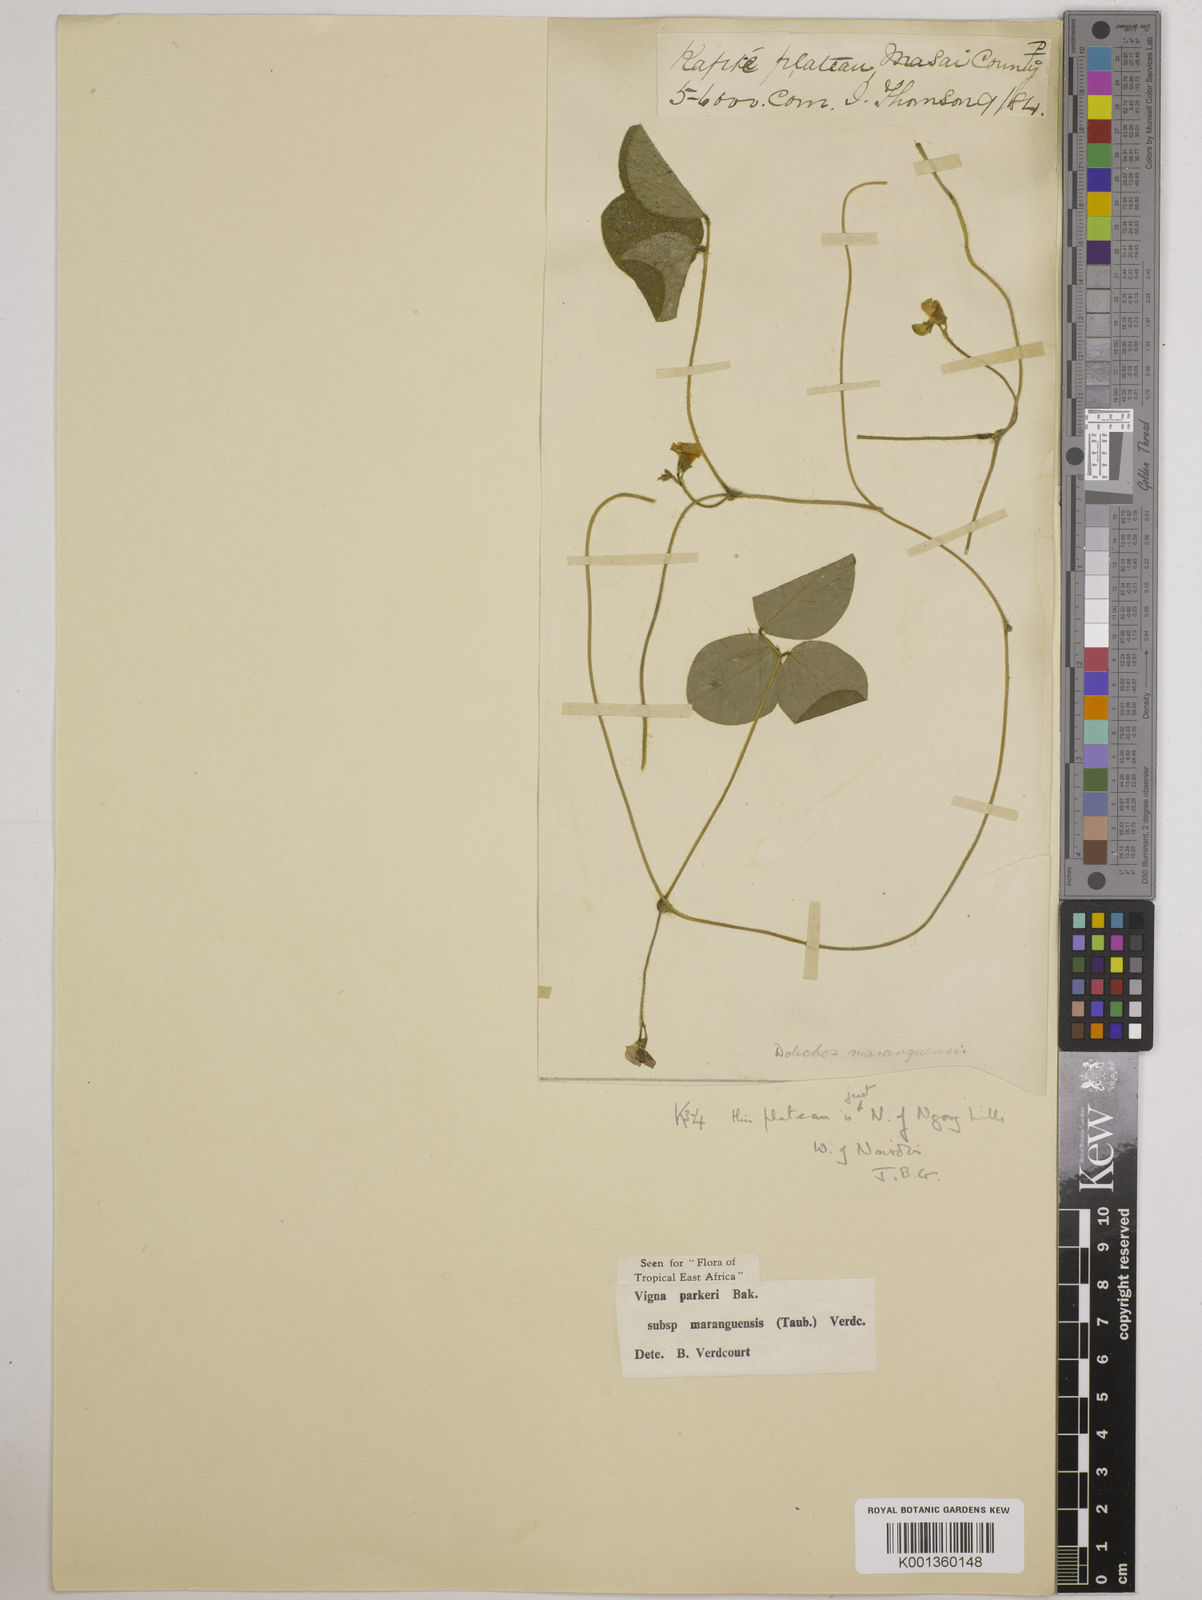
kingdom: Plantae
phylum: Tracheophyta
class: Magnoliopsida
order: Fabales
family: Fabaceae
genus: Vigna
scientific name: Vigna
